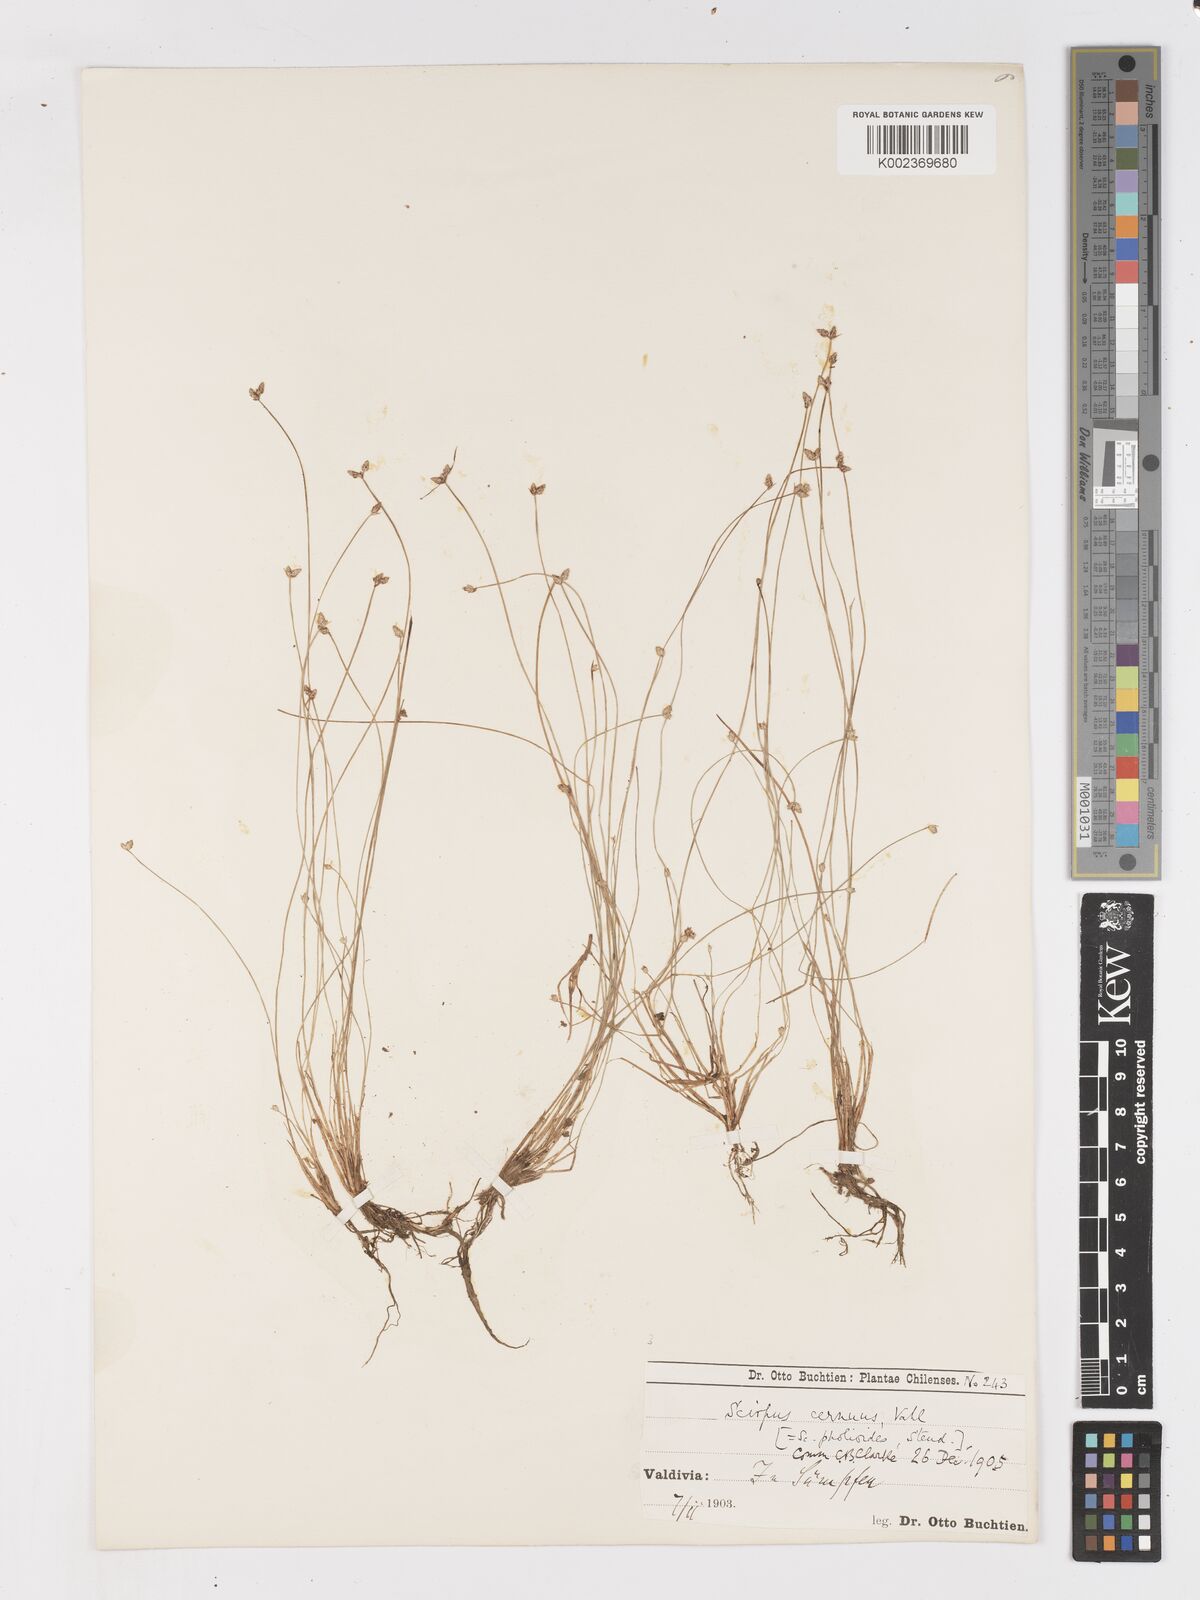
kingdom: Plantae
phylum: Tracheophyta
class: Liliopsida
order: Poales
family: Cyperaceae
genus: Isolepis
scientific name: Isolepis cernua
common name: Slender club-rush
